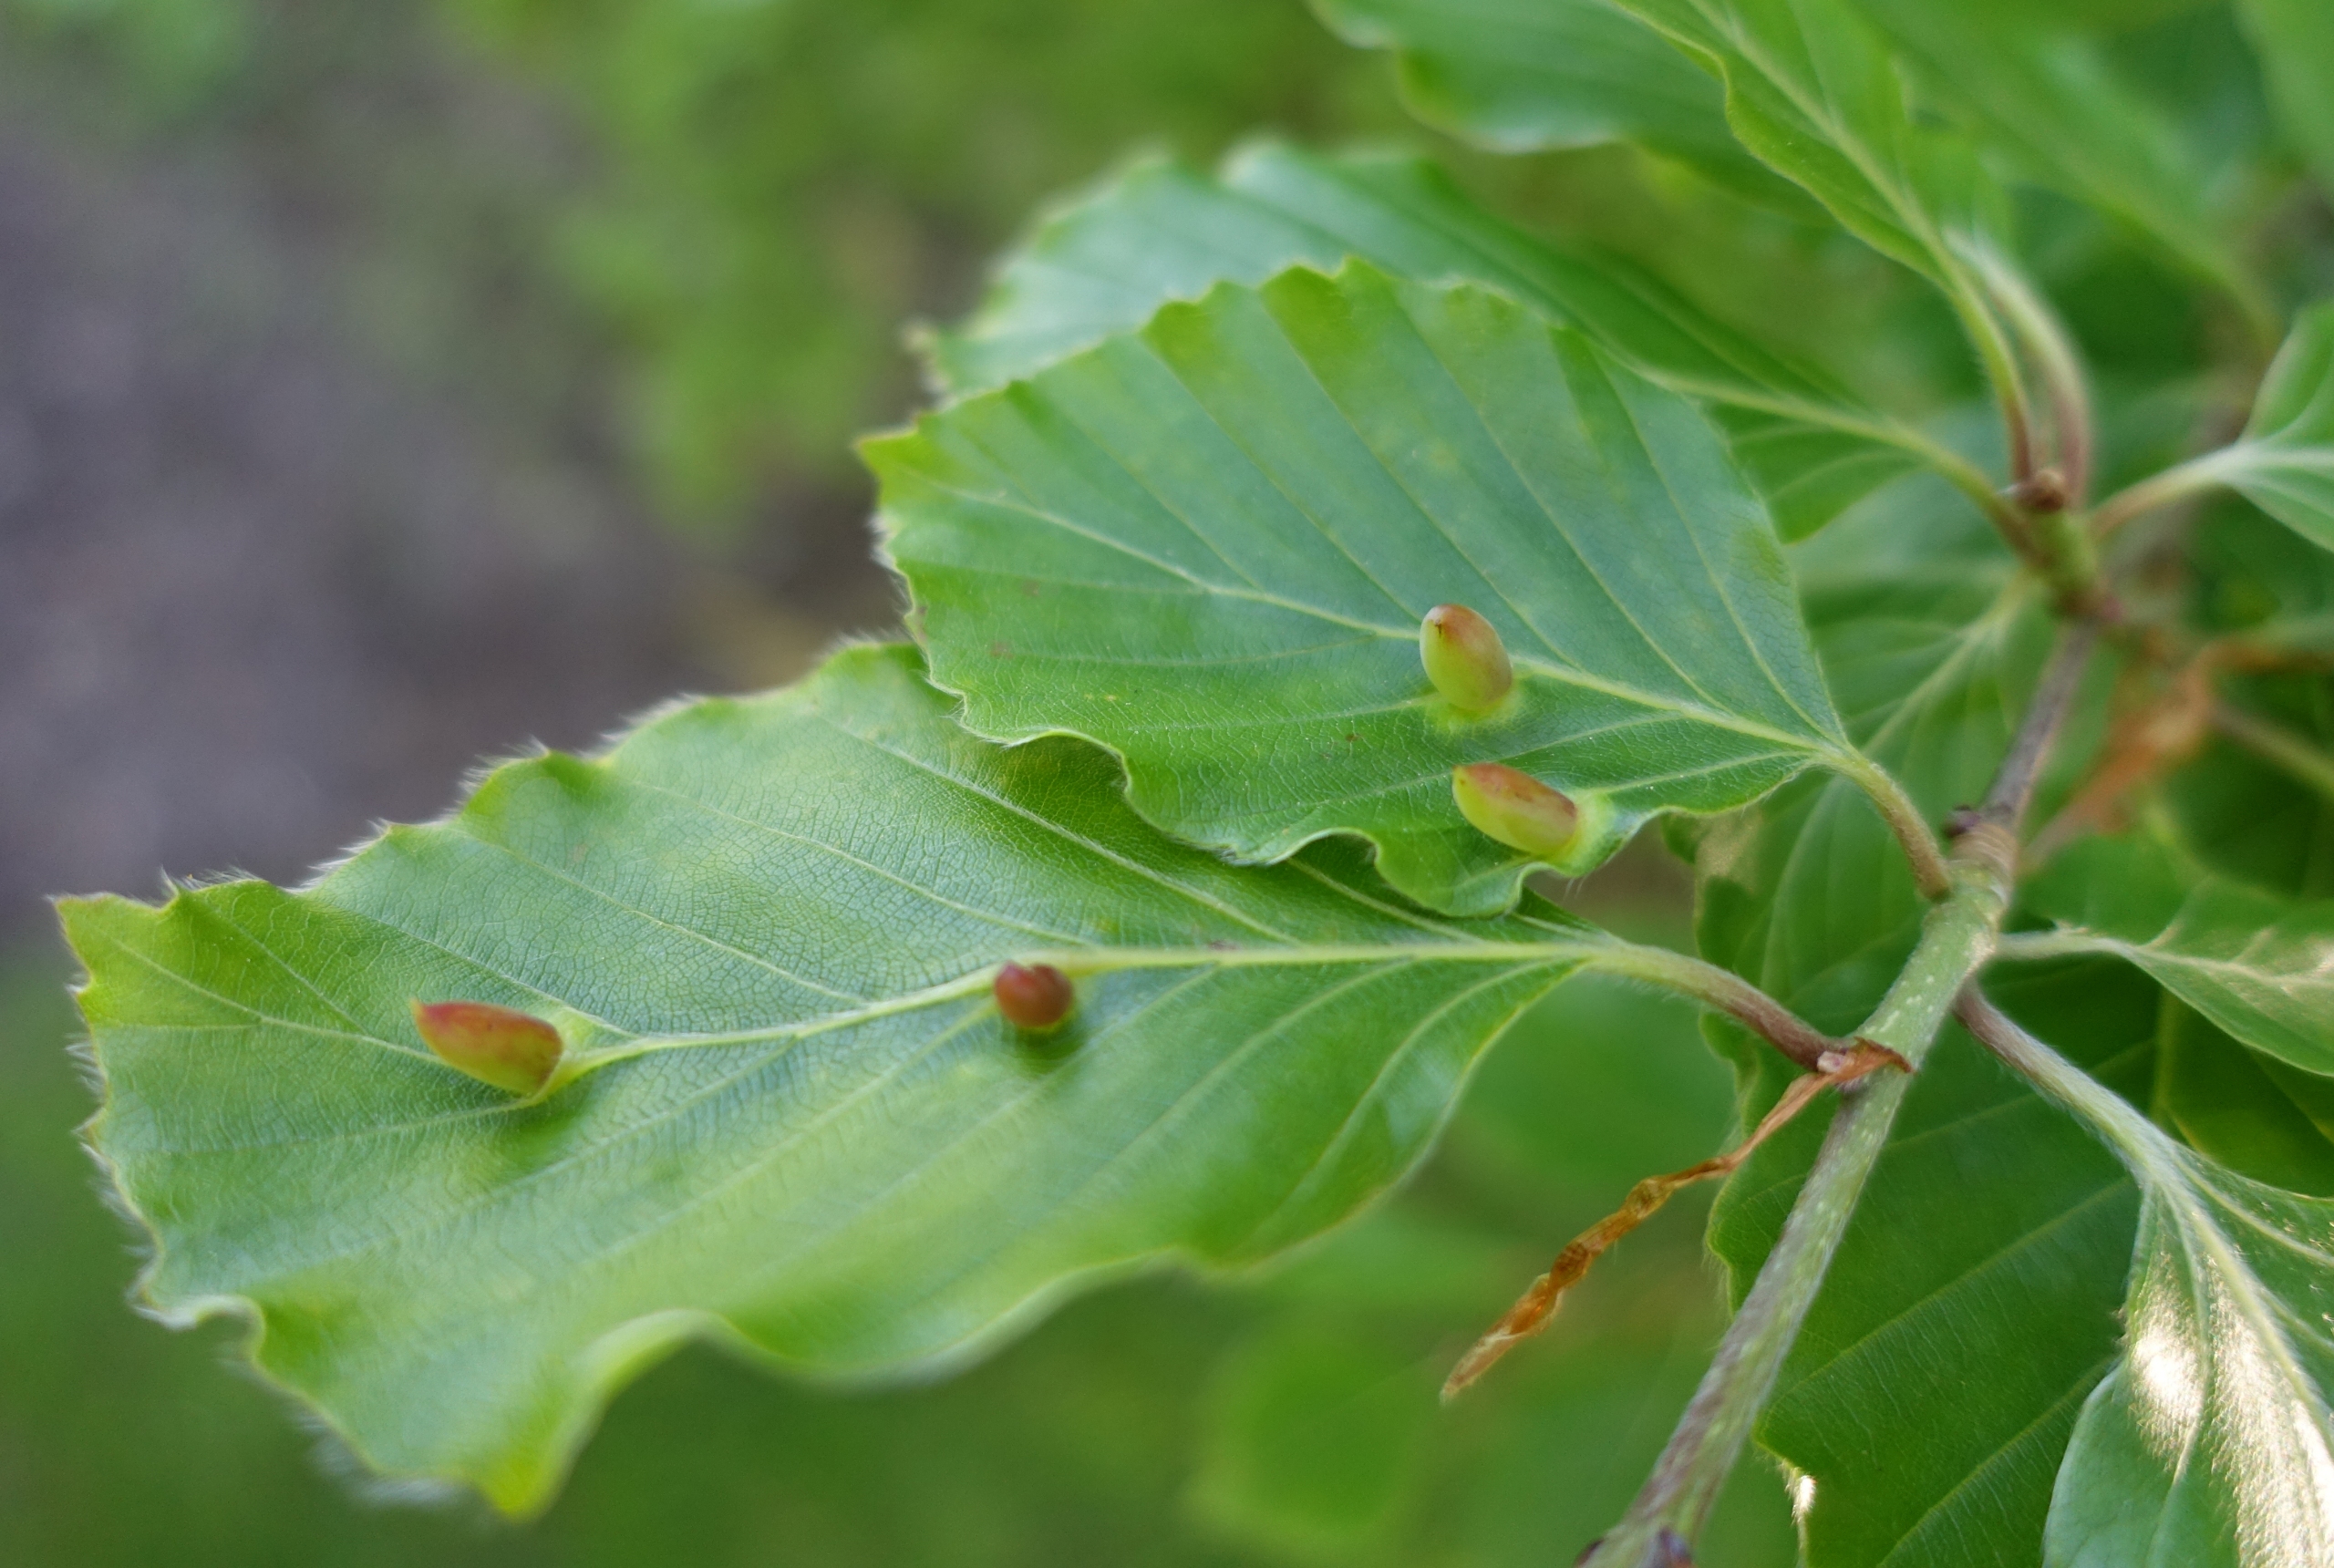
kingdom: Animalia
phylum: Arthropoda
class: Insecta
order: Diptera
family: Cecidomyiidae
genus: Mikiola
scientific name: Mikiola fagi
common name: Bøgegalmyg
